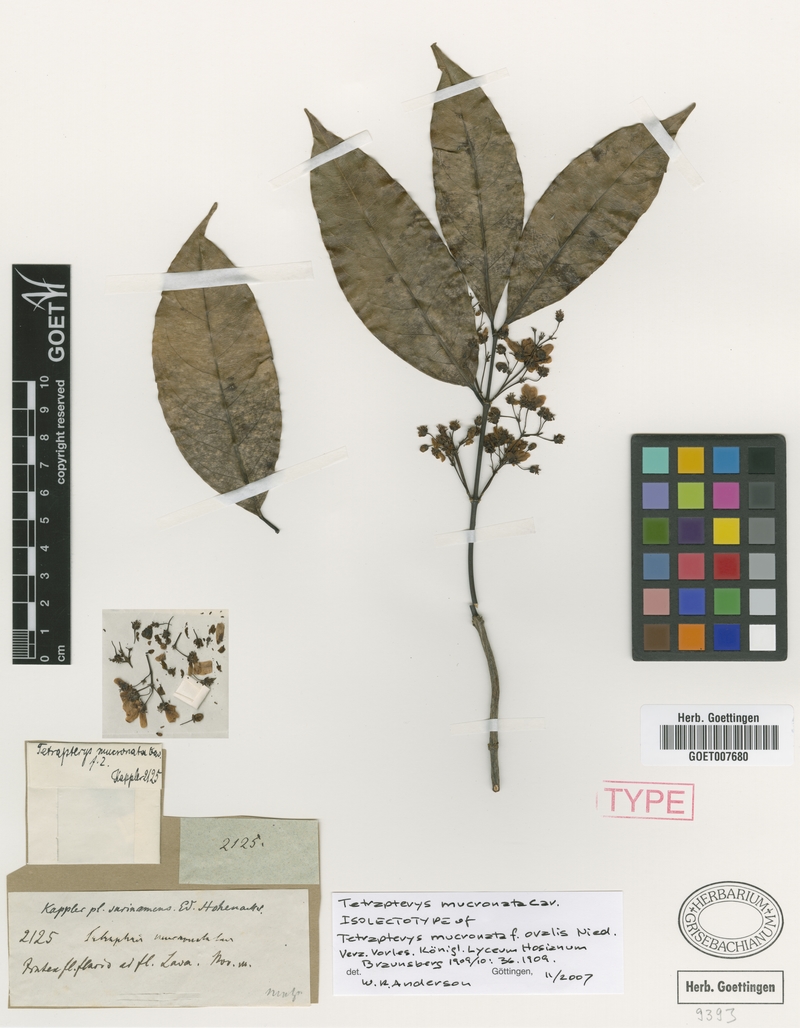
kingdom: Plantae
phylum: Tracheophyta
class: Magnoliopsida
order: Malpighiales
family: Malpighiaceae
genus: Tetrapterys
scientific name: Tetrapterys mucronata
